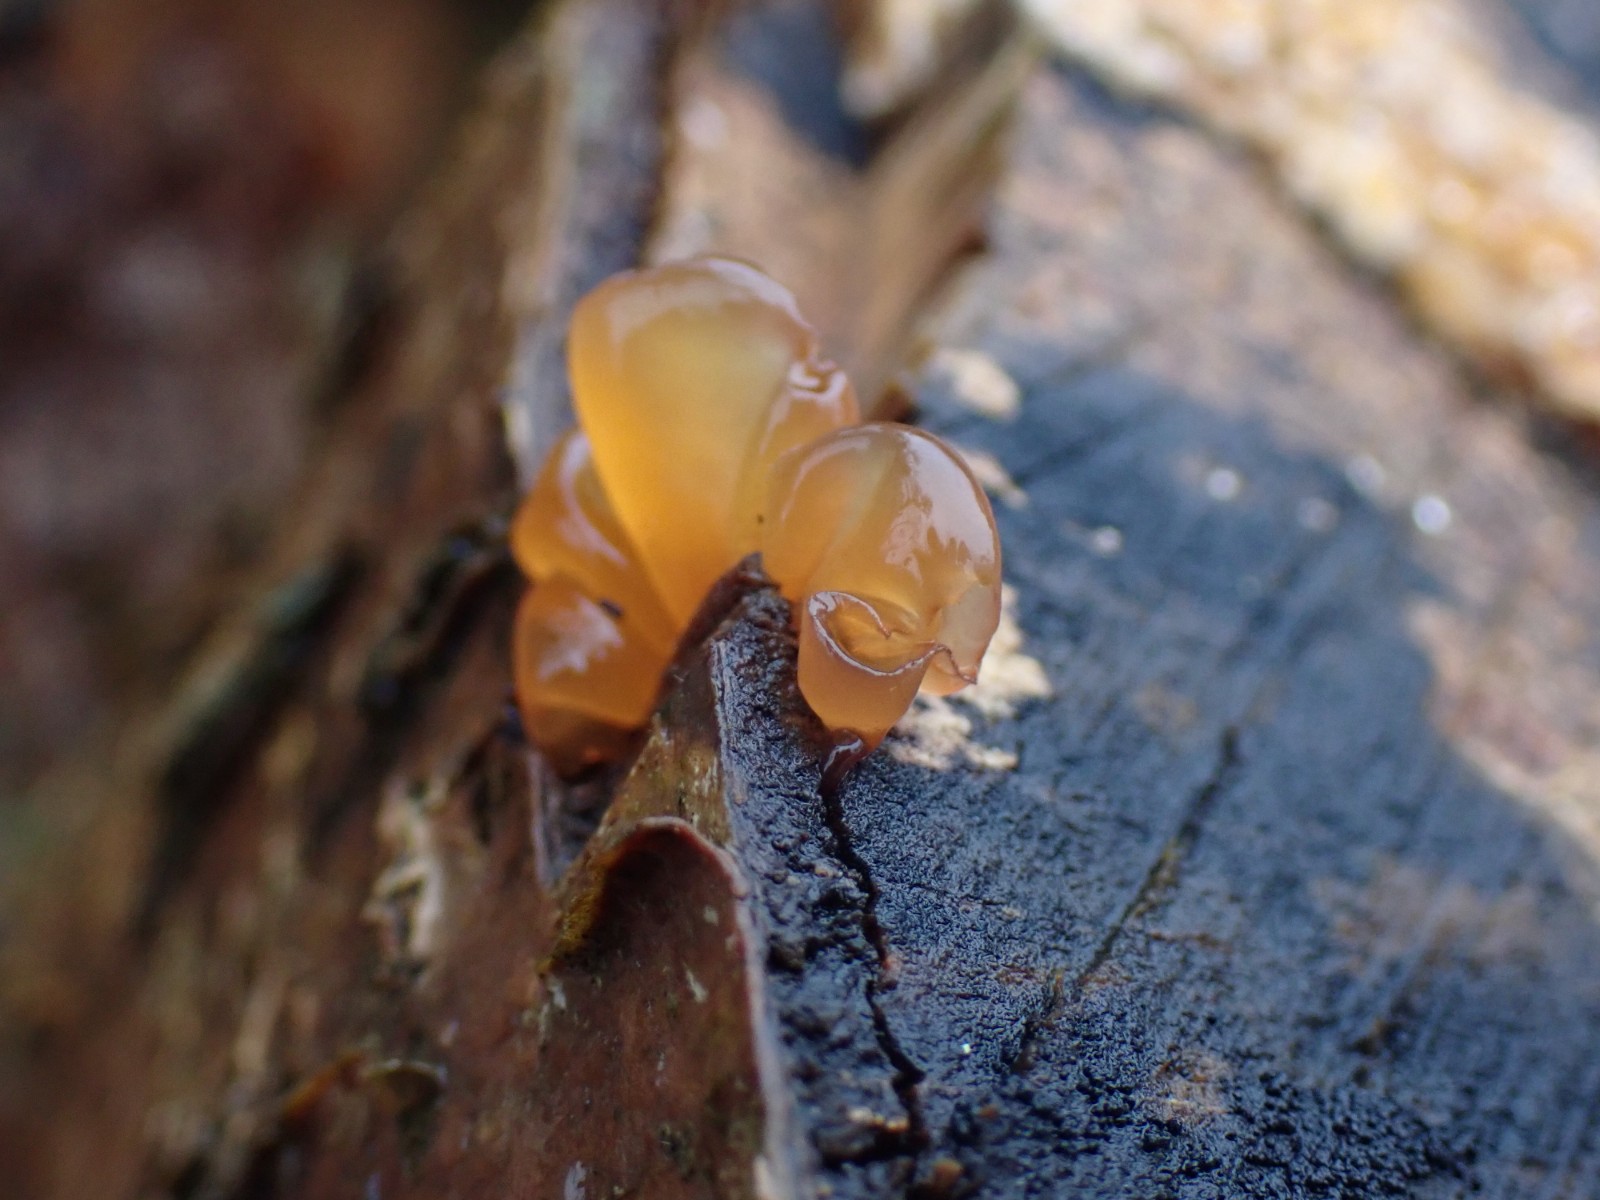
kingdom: Fungi
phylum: Basidiomycota
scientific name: Basidiomycota
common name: basidiesvampe
